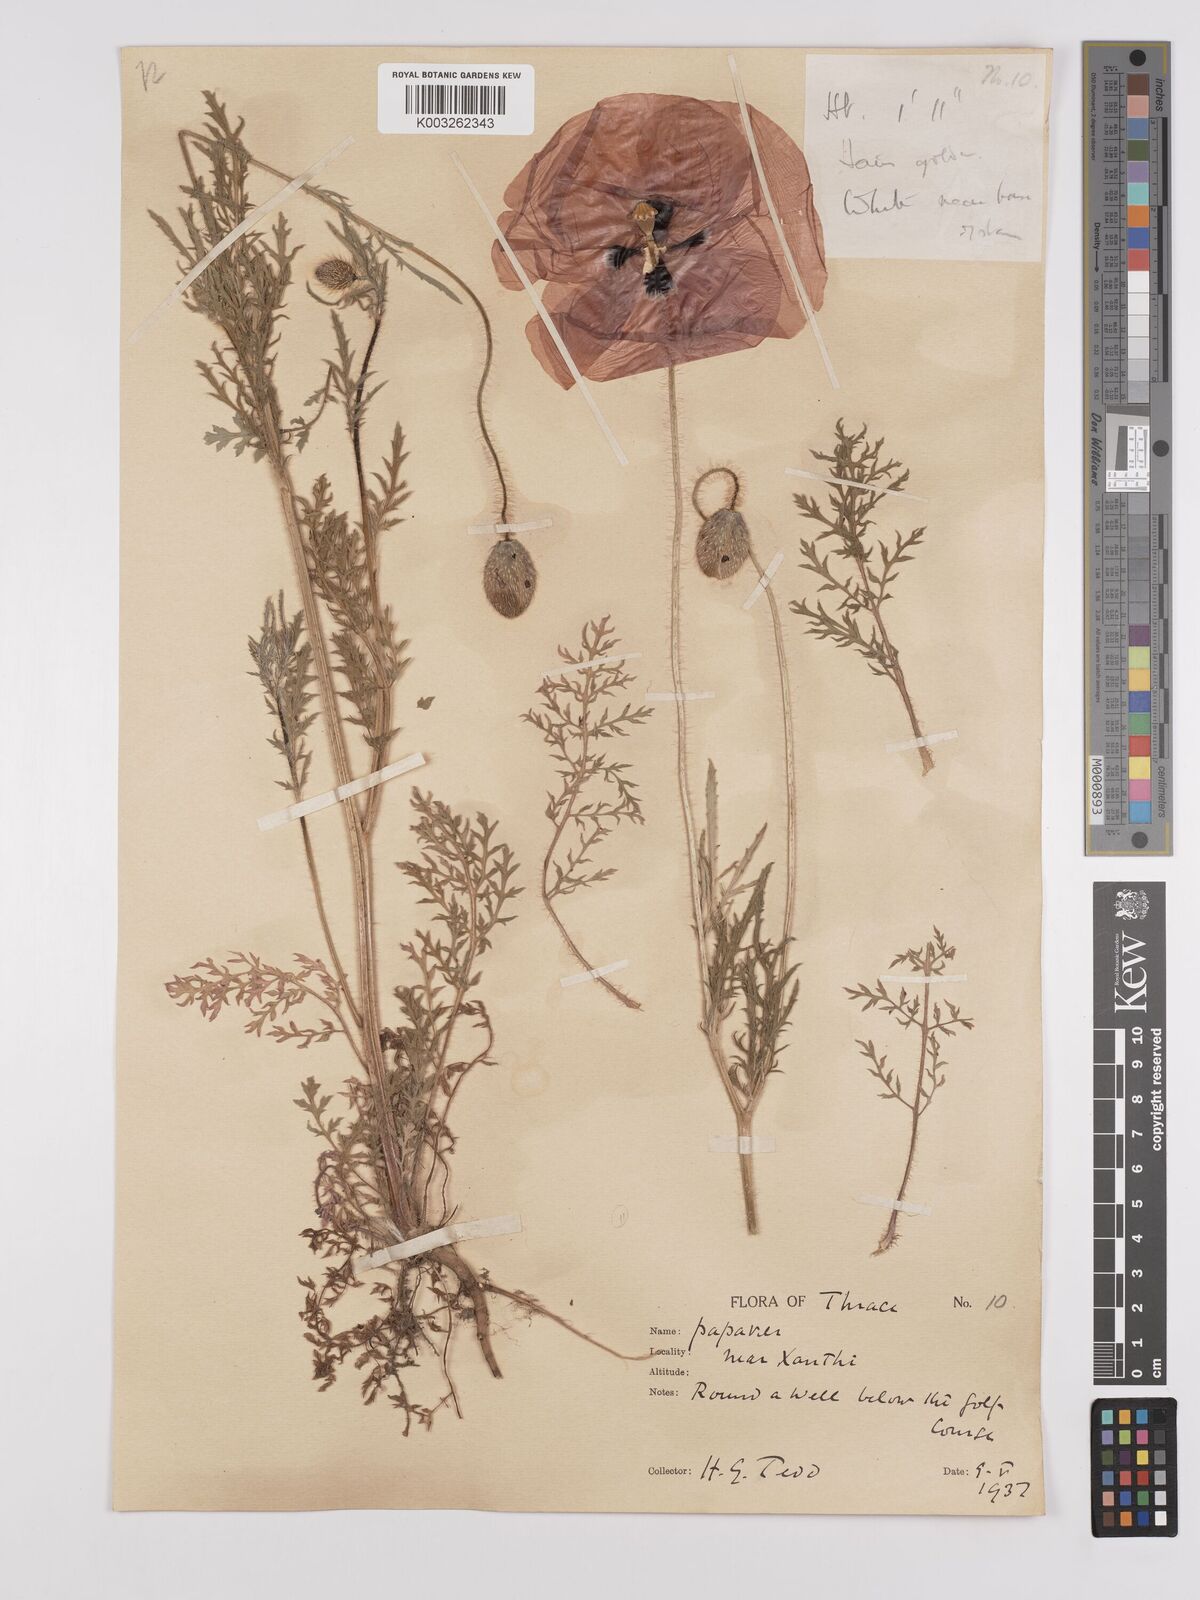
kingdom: Plantae
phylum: Tracheophyta
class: Magnoliopsida
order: Ranunculales
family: Papaveraceae
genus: Papaver
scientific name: Papaver rhoeas
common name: Corn poppy
